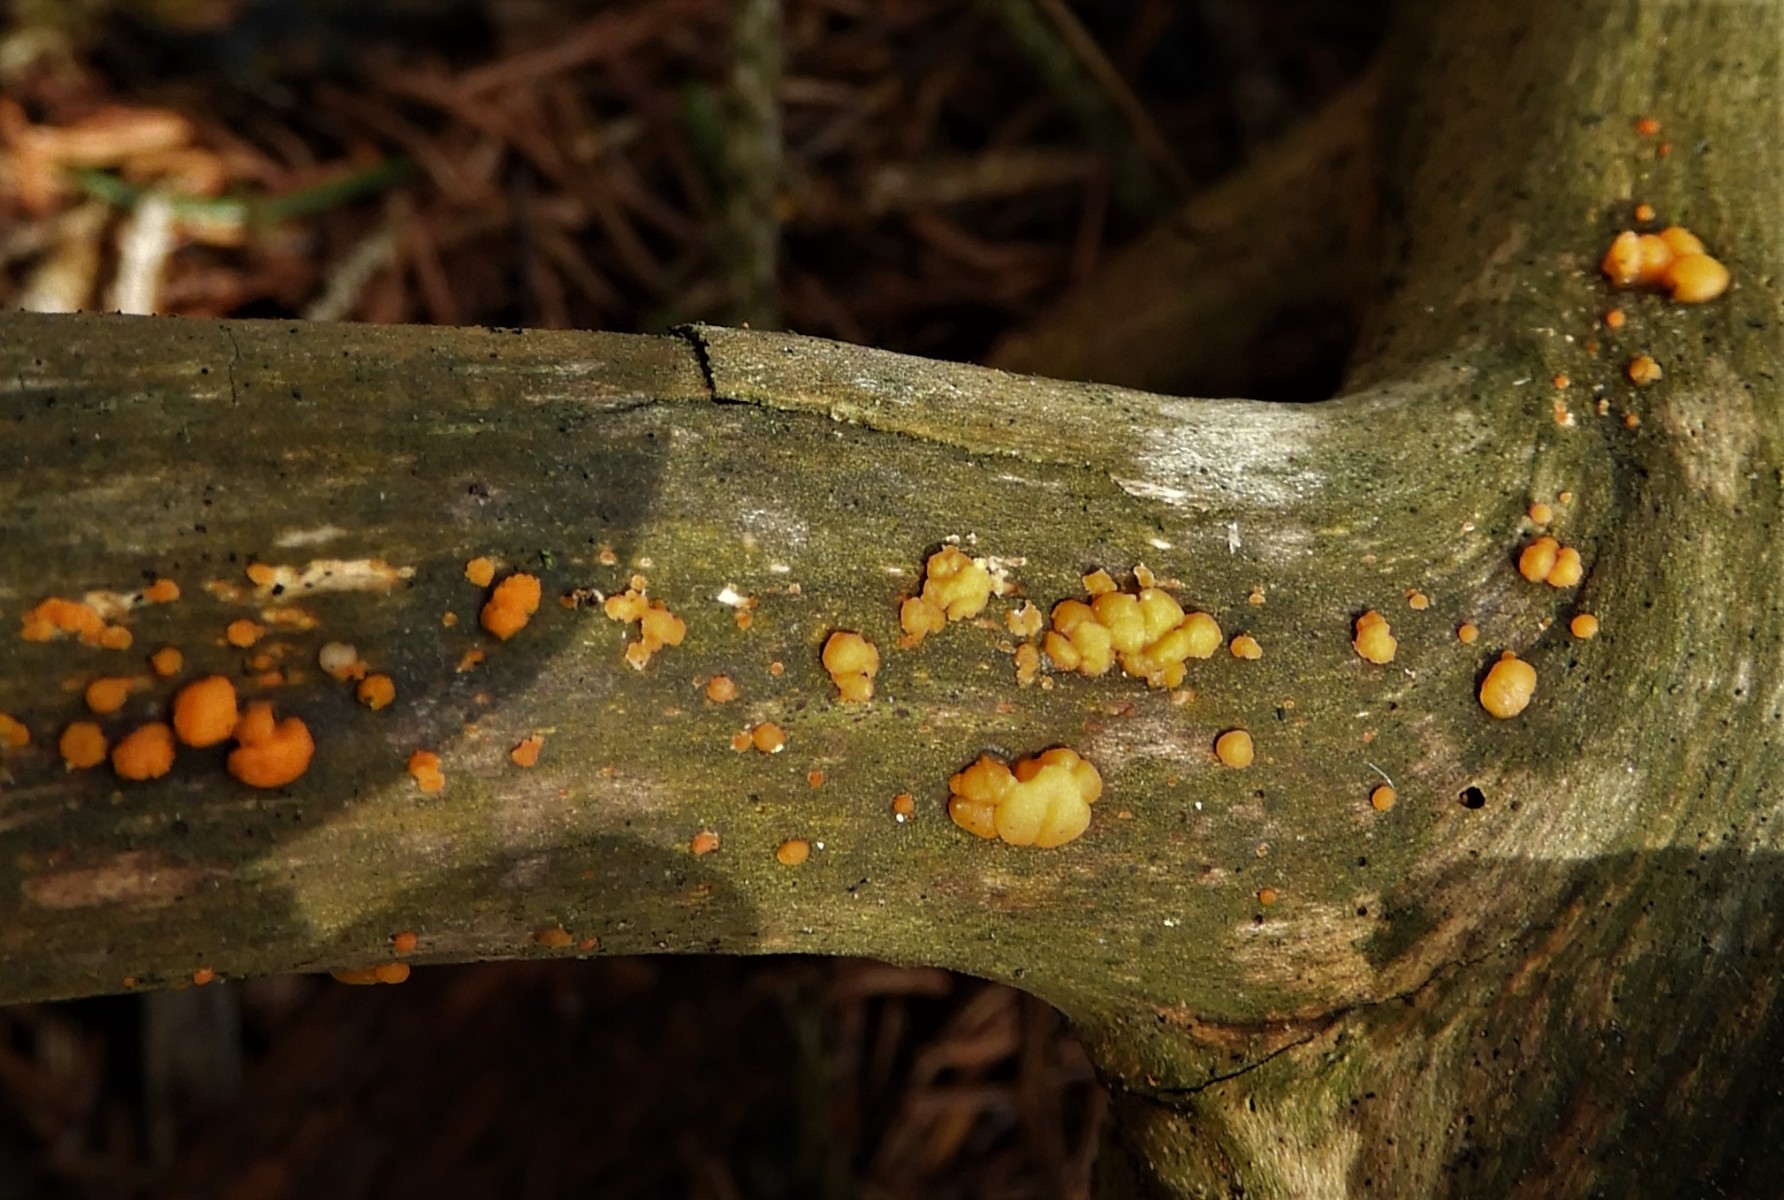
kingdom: Fungi
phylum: Basidiomycota
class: Dacrymycetes
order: Dacrymycetales
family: Dacrymycetaceae
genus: Dacrymyces
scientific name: Dacrymyces stillatus
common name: almindelig tåresvamp
